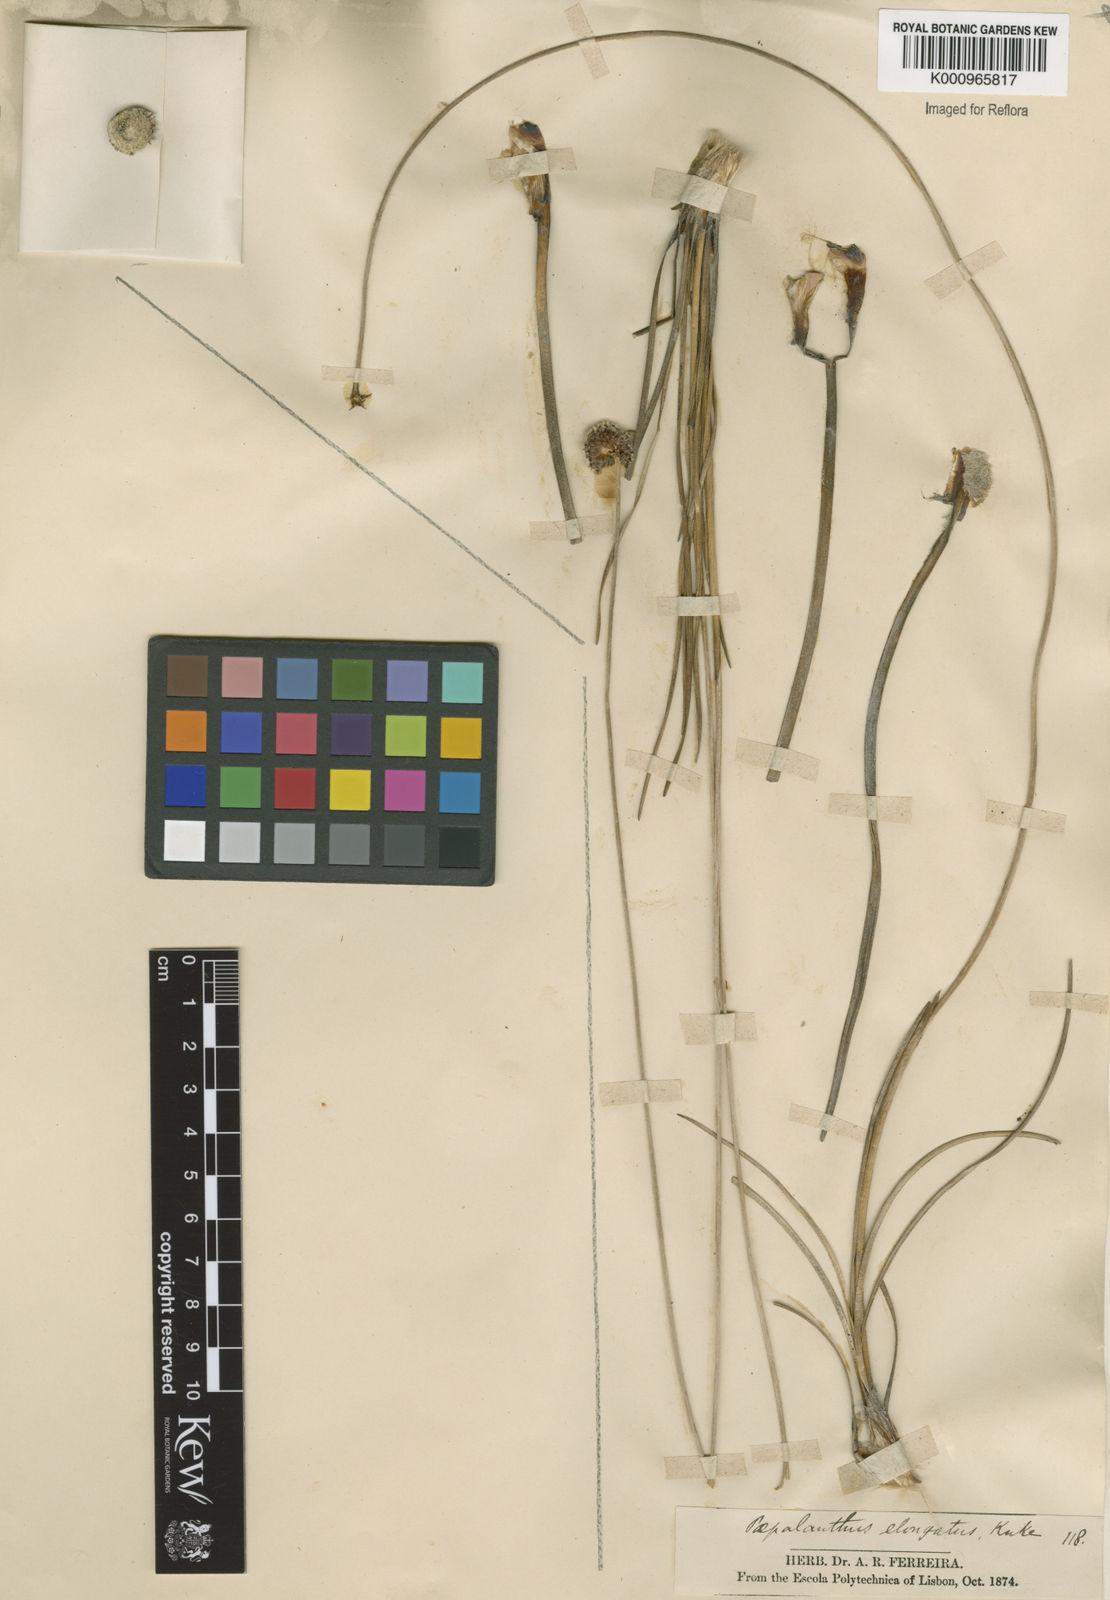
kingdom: Plantae
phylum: Tracheophyta
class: Liliopsida
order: Poales
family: Eriocaulaceae
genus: Paepalanthus
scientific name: Paepalanthus
